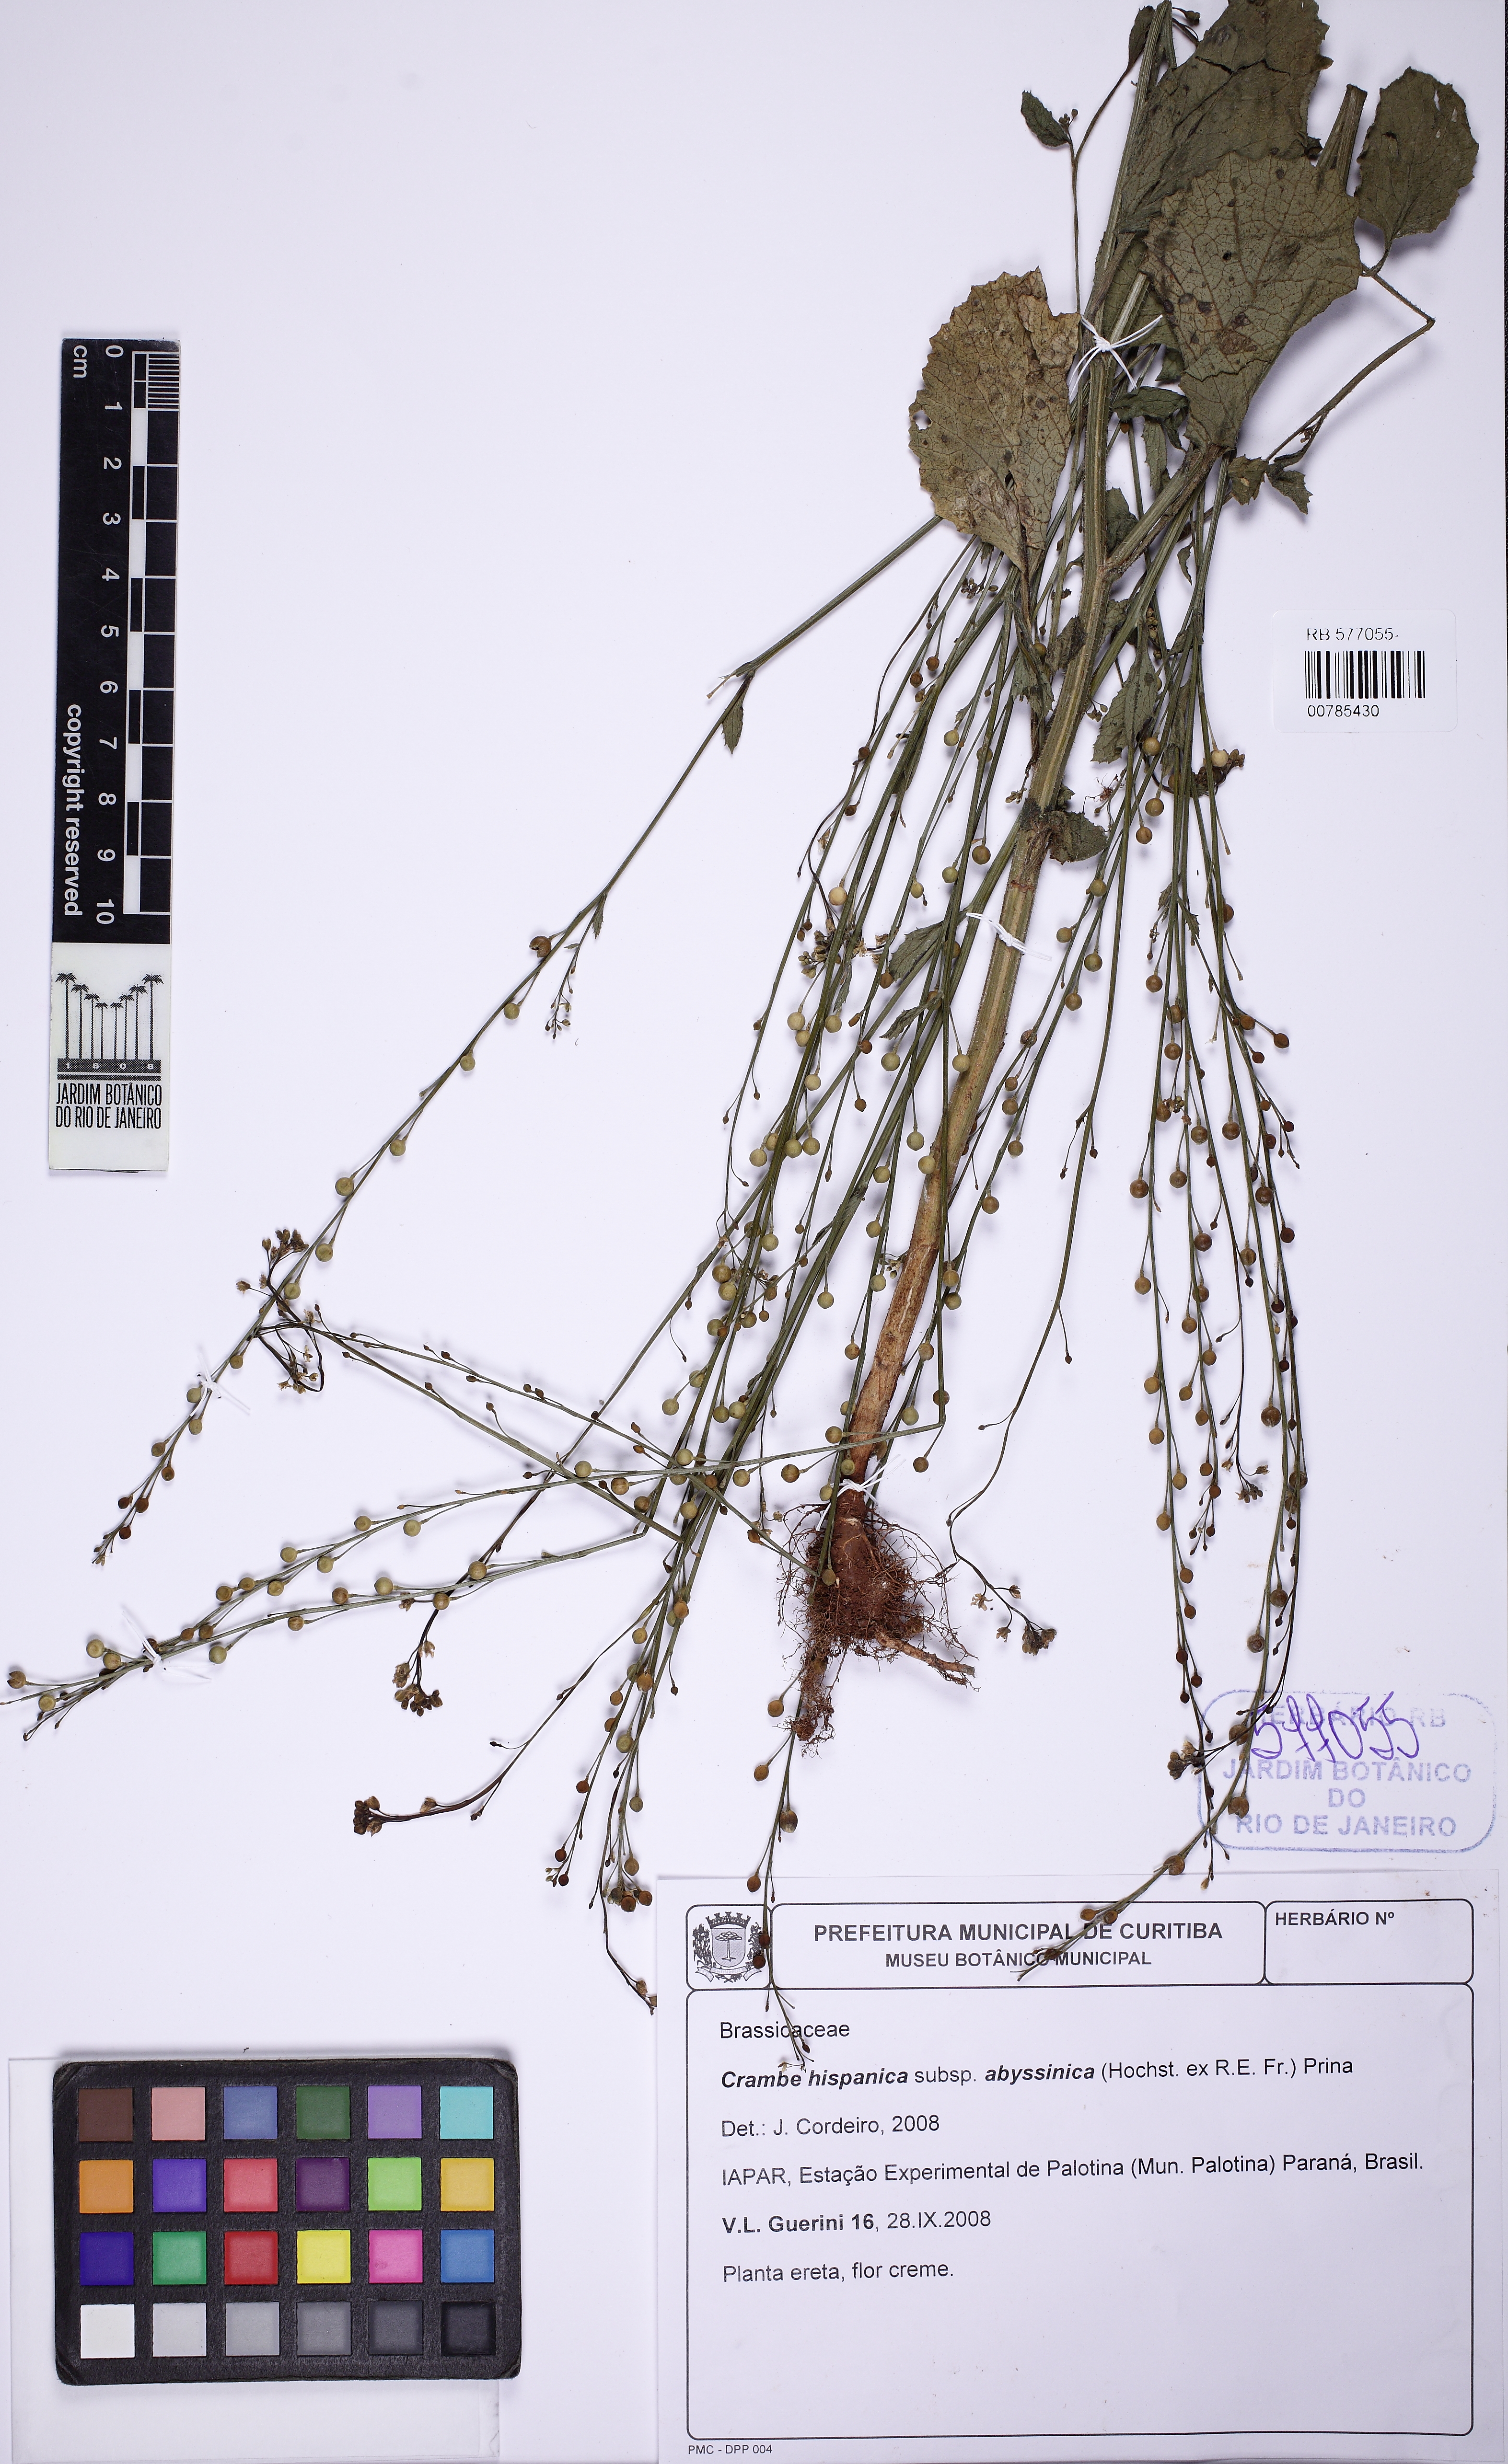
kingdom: Plantae
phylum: Tracheophyta
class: Magnoliopsida
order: Brassicales
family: Brassicaceae
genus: Crambe
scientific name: Crambe hispanica
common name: Abyssinian mustard
